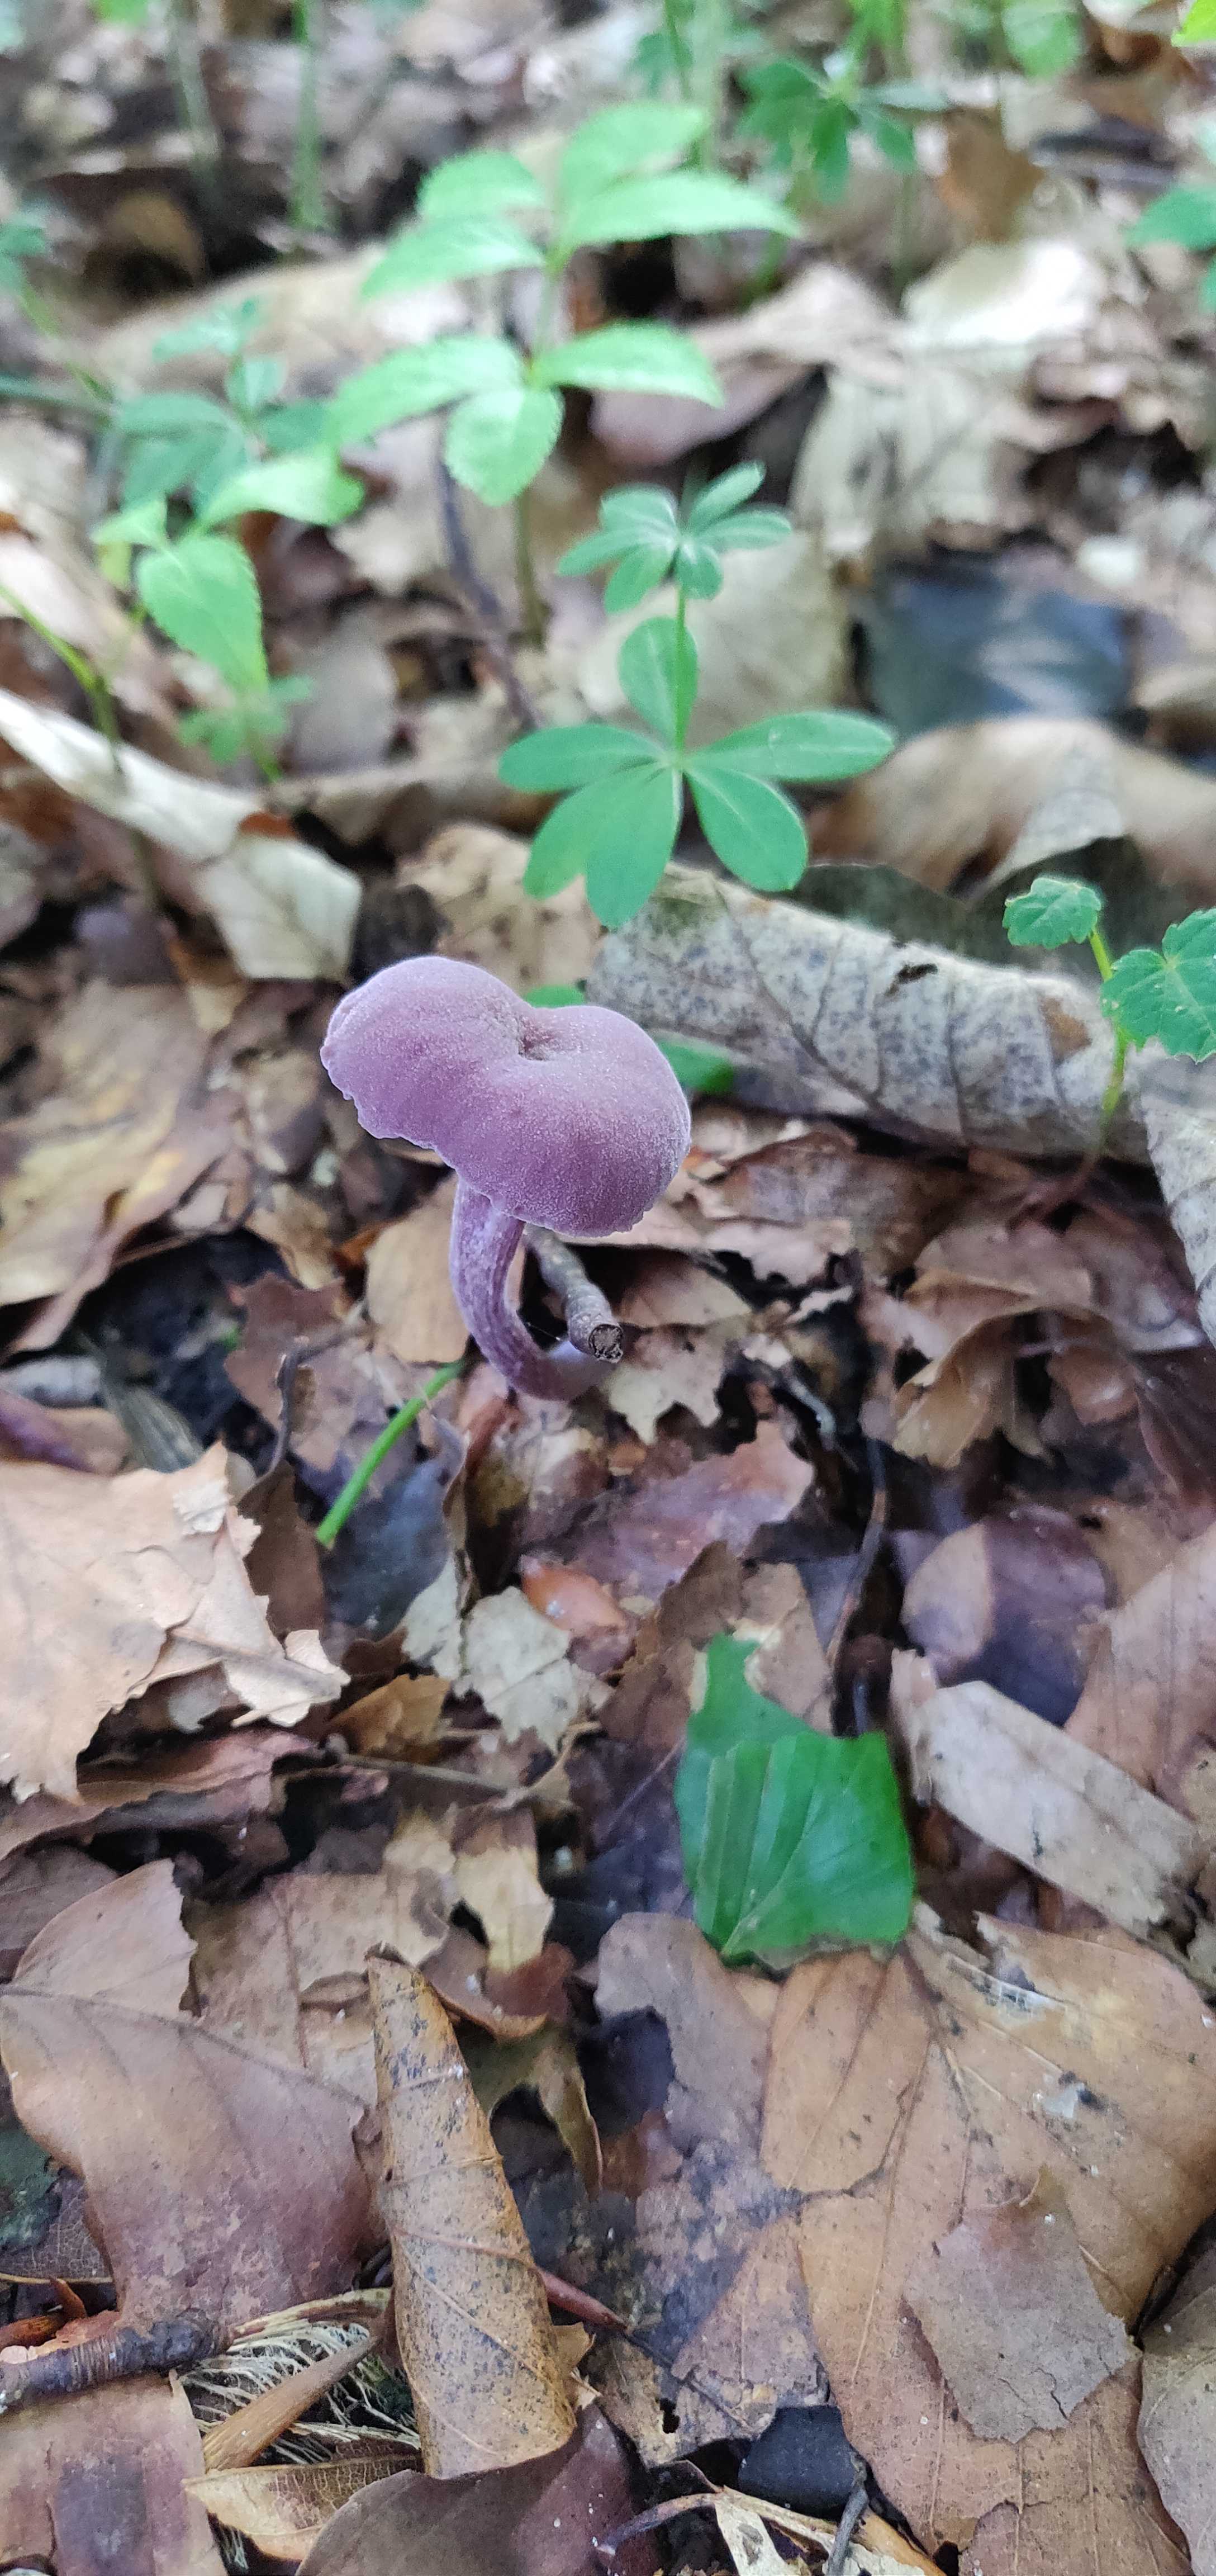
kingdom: Fungi
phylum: Basidiomycota
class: Agaricomycetes
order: Agaricales
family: Hydnangiaceae
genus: Laccaria
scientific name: Laccaria amethystina
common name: violet ametysthat
